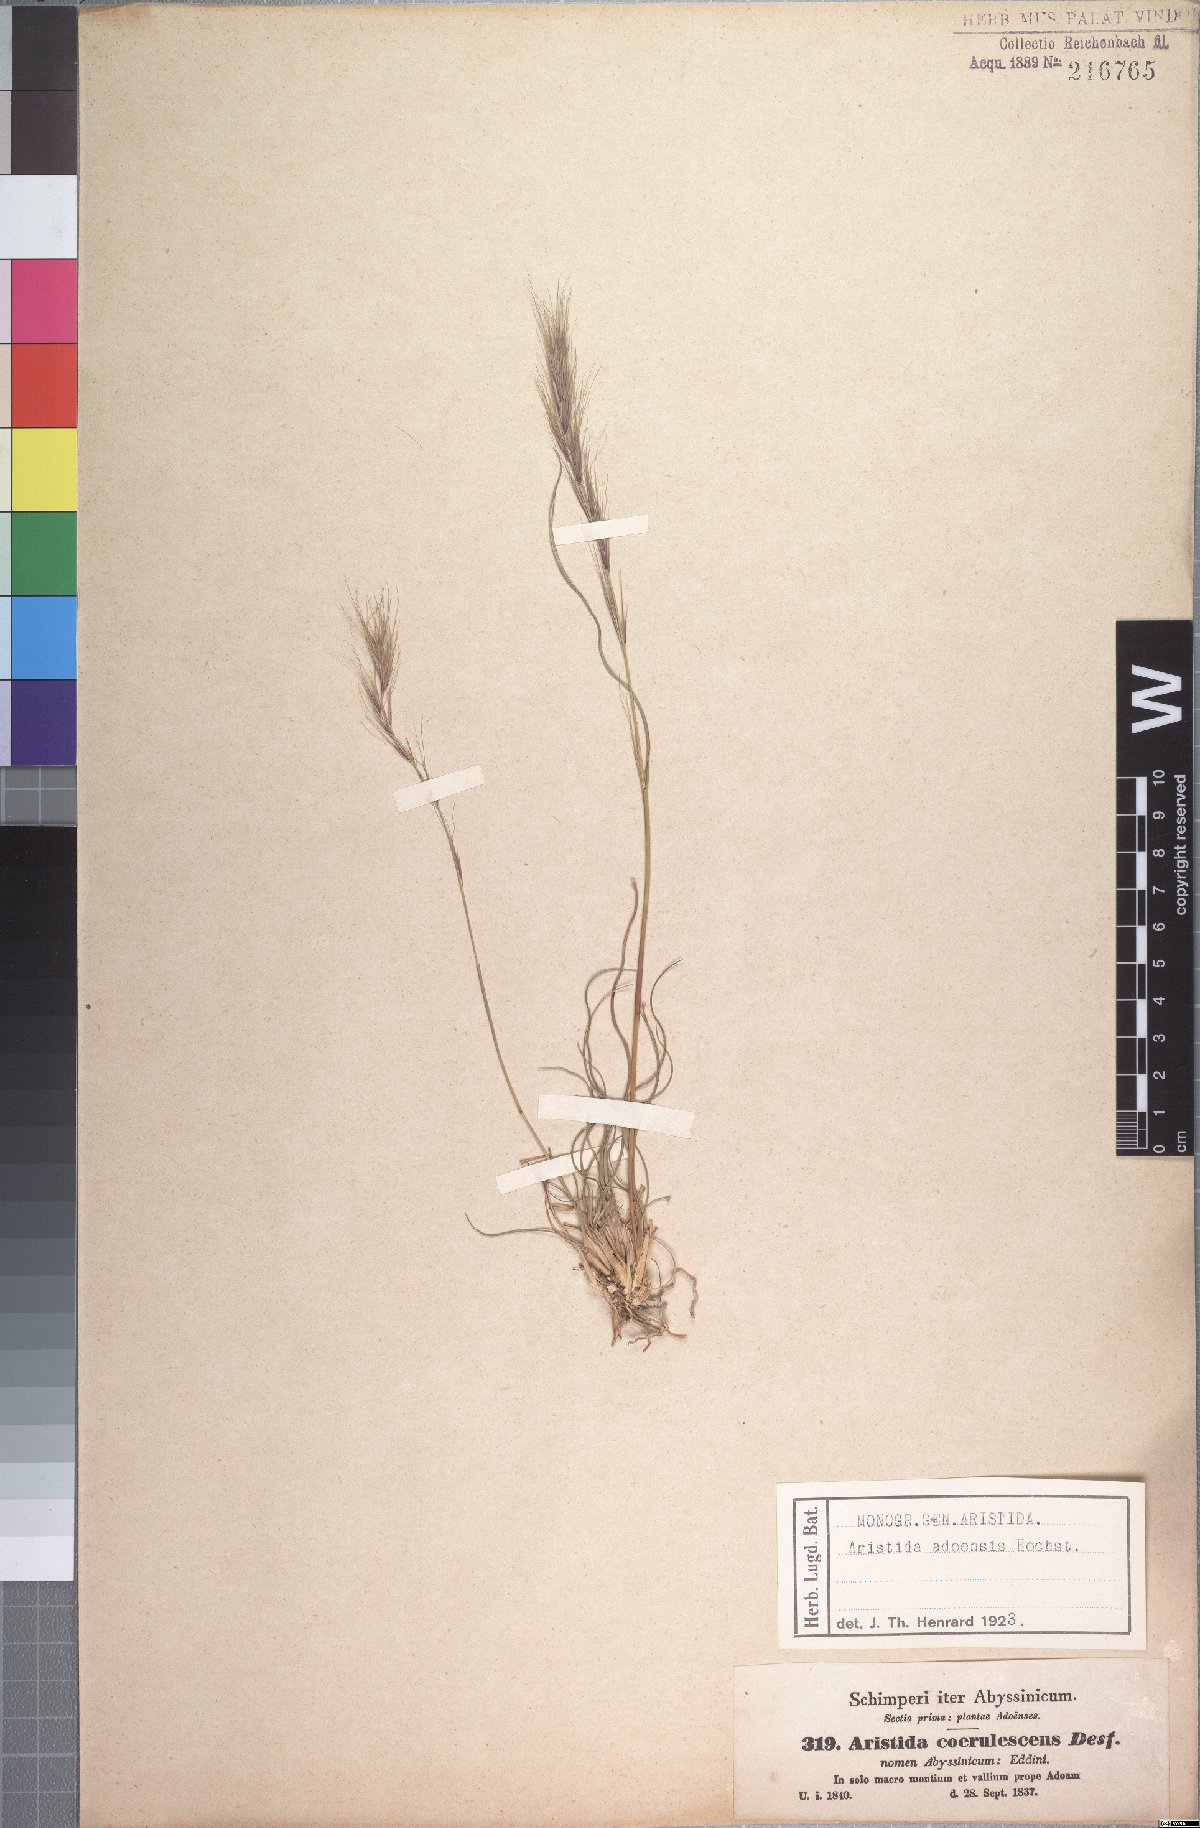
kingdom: Plantae
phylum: Tracheophyta
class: Liliopsida
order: Poales
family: Poaceae
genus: Aristida
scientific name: Aristida adoensis
